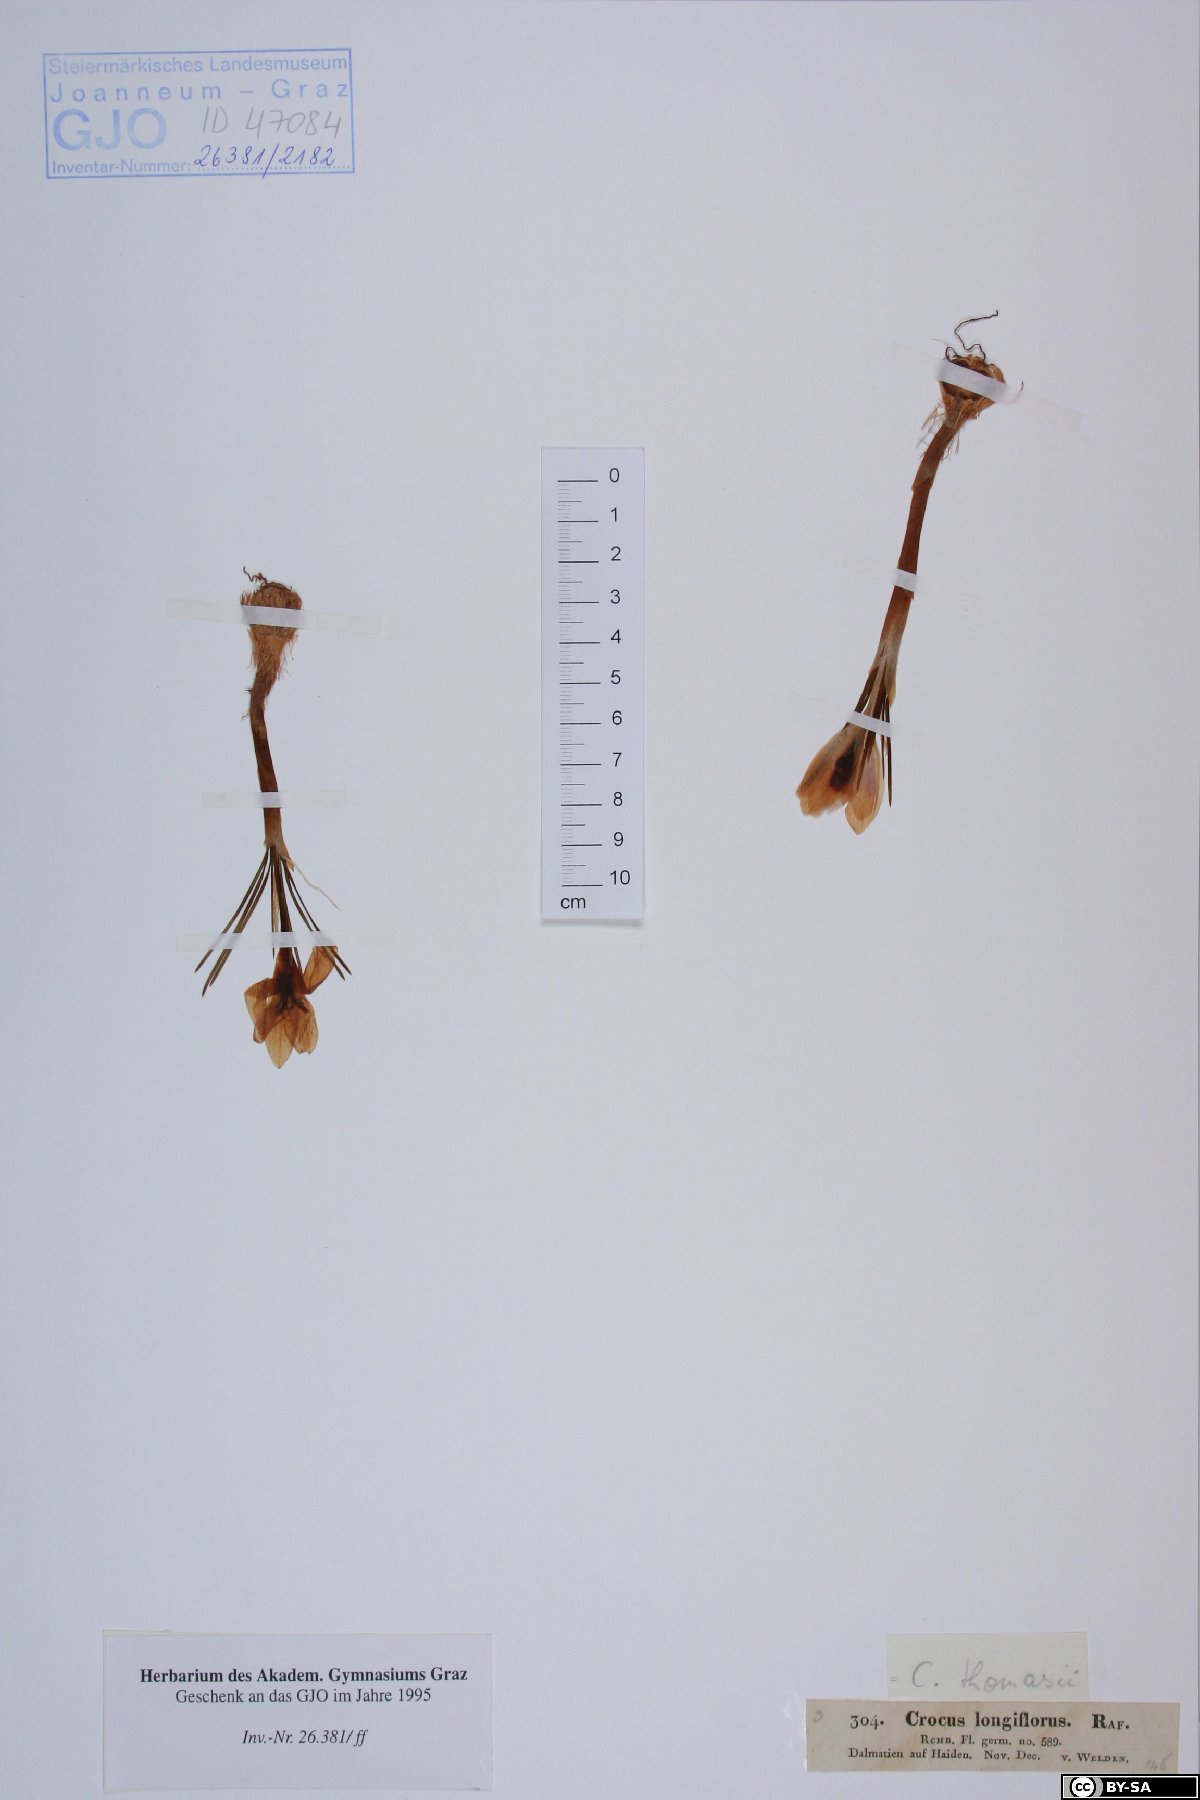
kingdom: Plantae
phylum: Tracheophyta
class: Liliopsida
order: Asparagales
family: Iridaceae
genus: Crocus
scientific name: Crocus longiflorus
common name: Italian crocus
